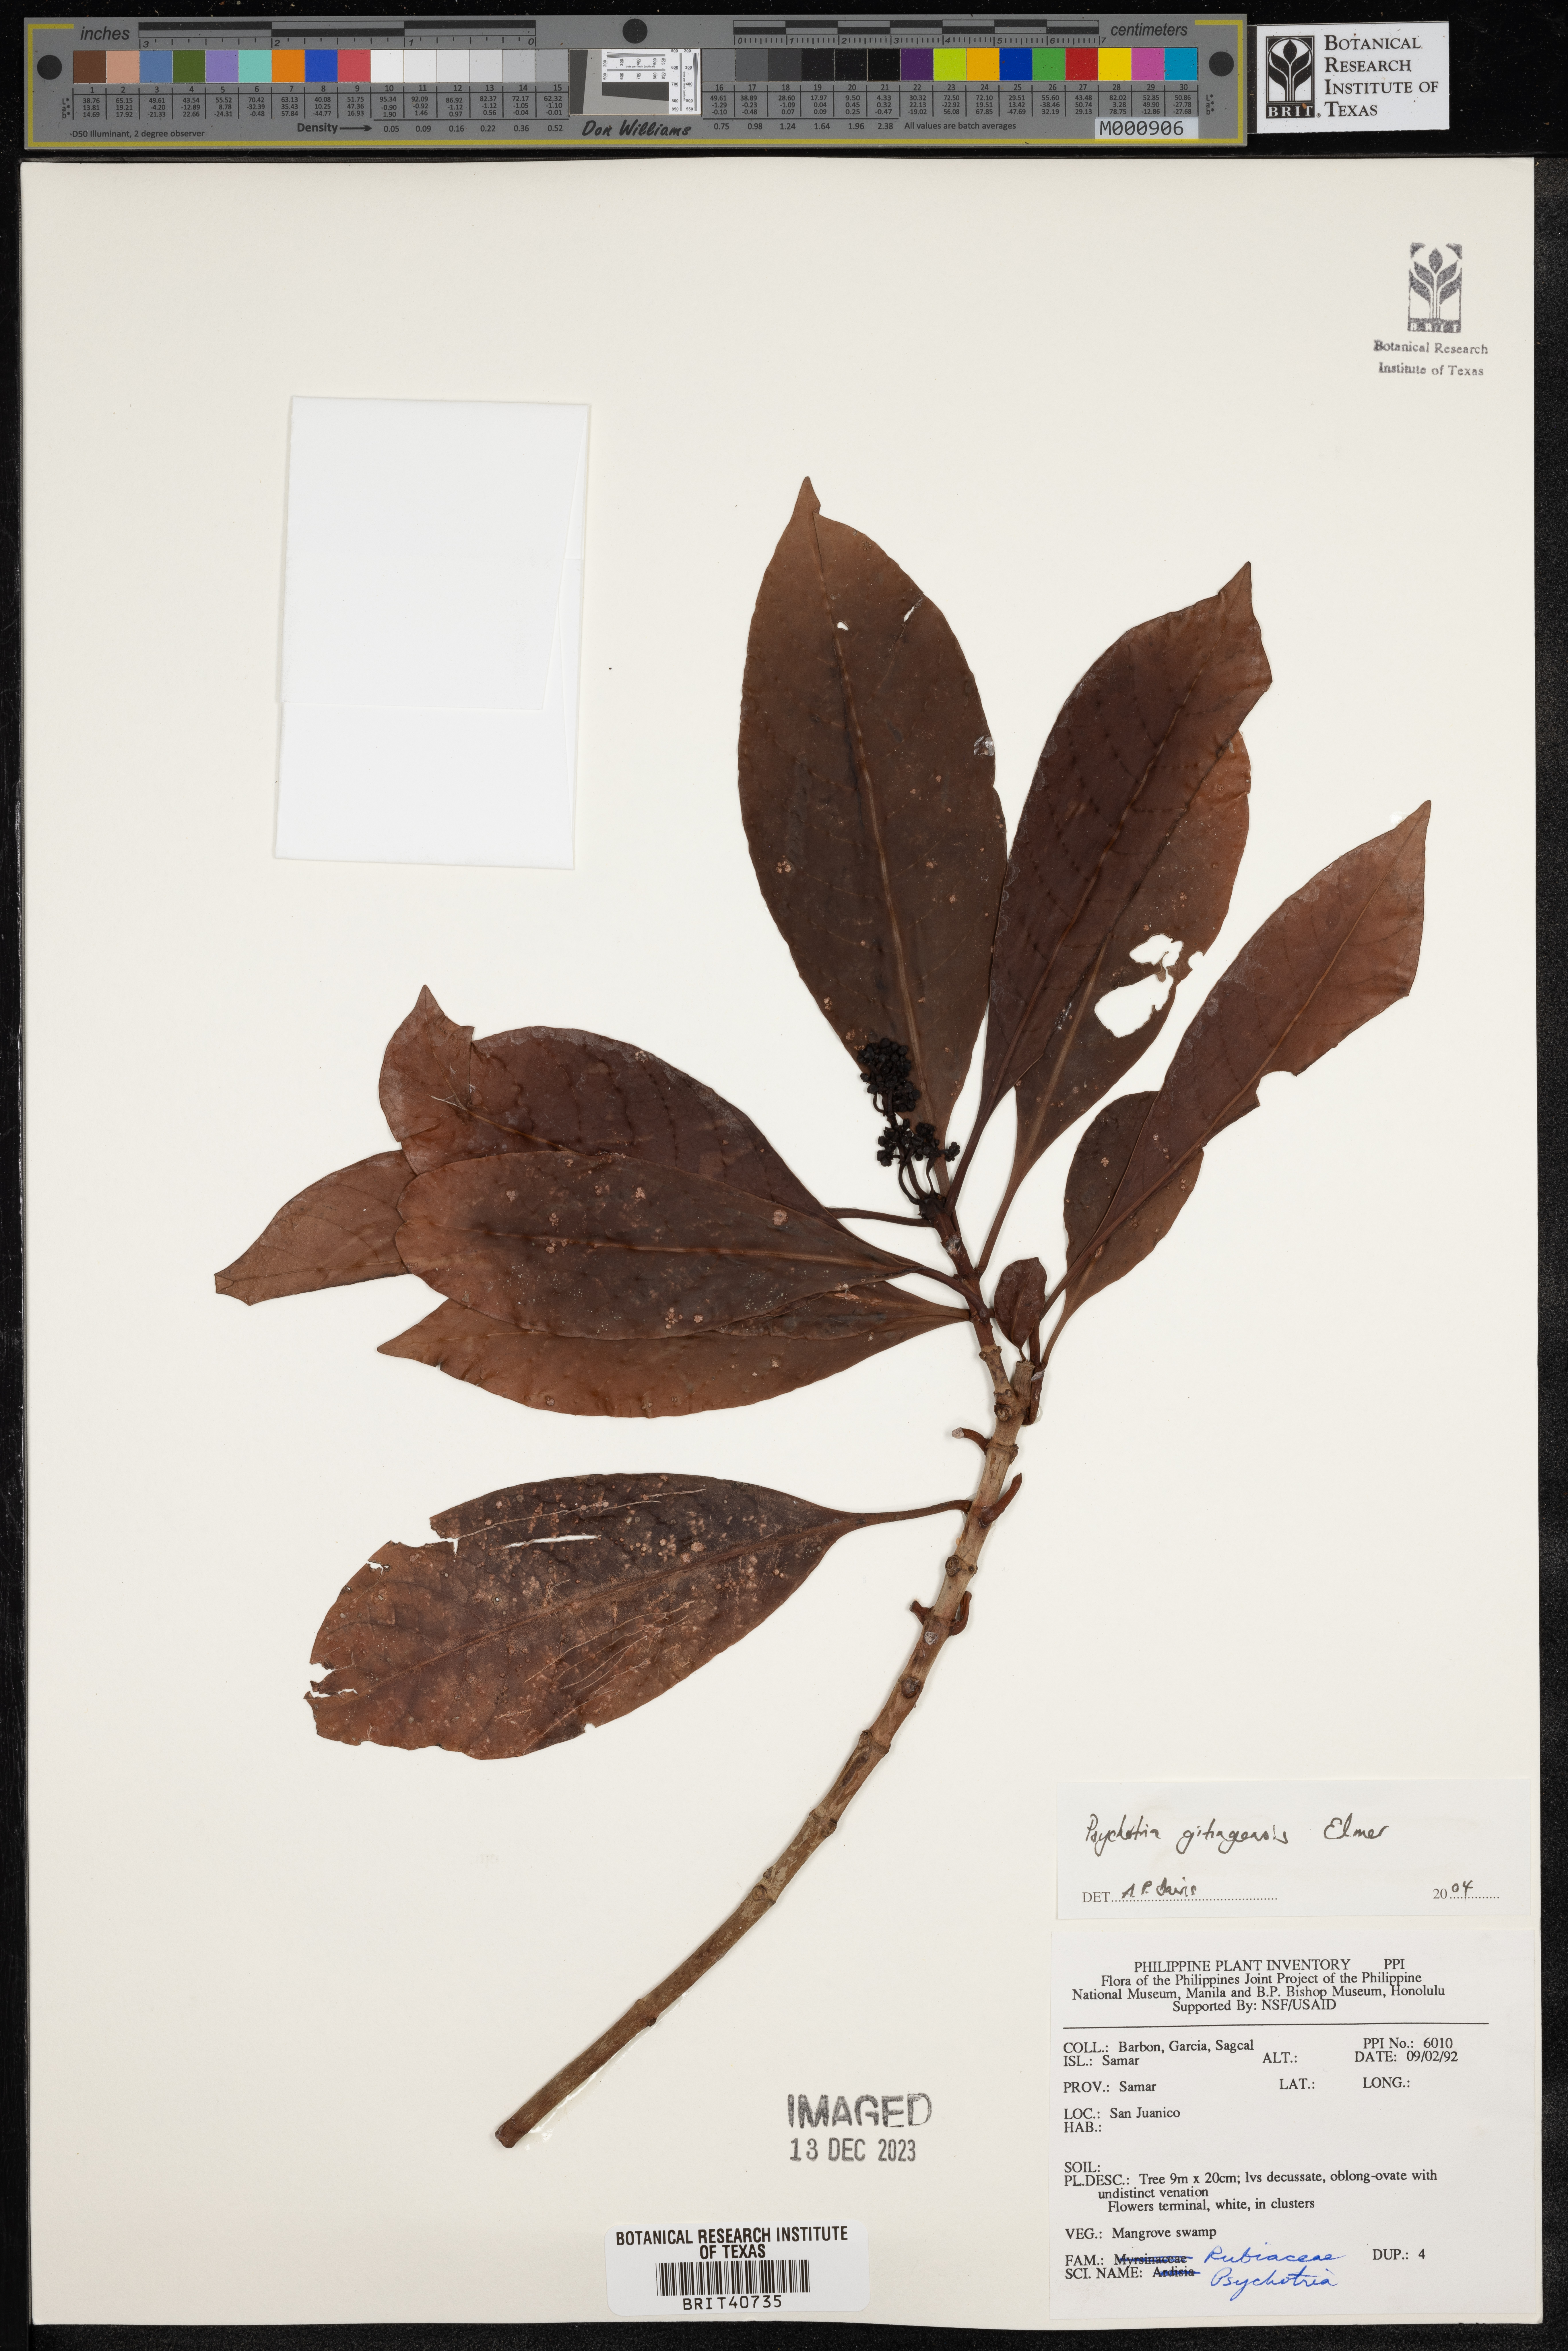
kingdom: Plantae
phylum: Tracheophyta
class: Magnoliopsida
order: Gentianales
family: Rubiaceae
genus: Psychotria
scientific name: Psychotria gitingensis
